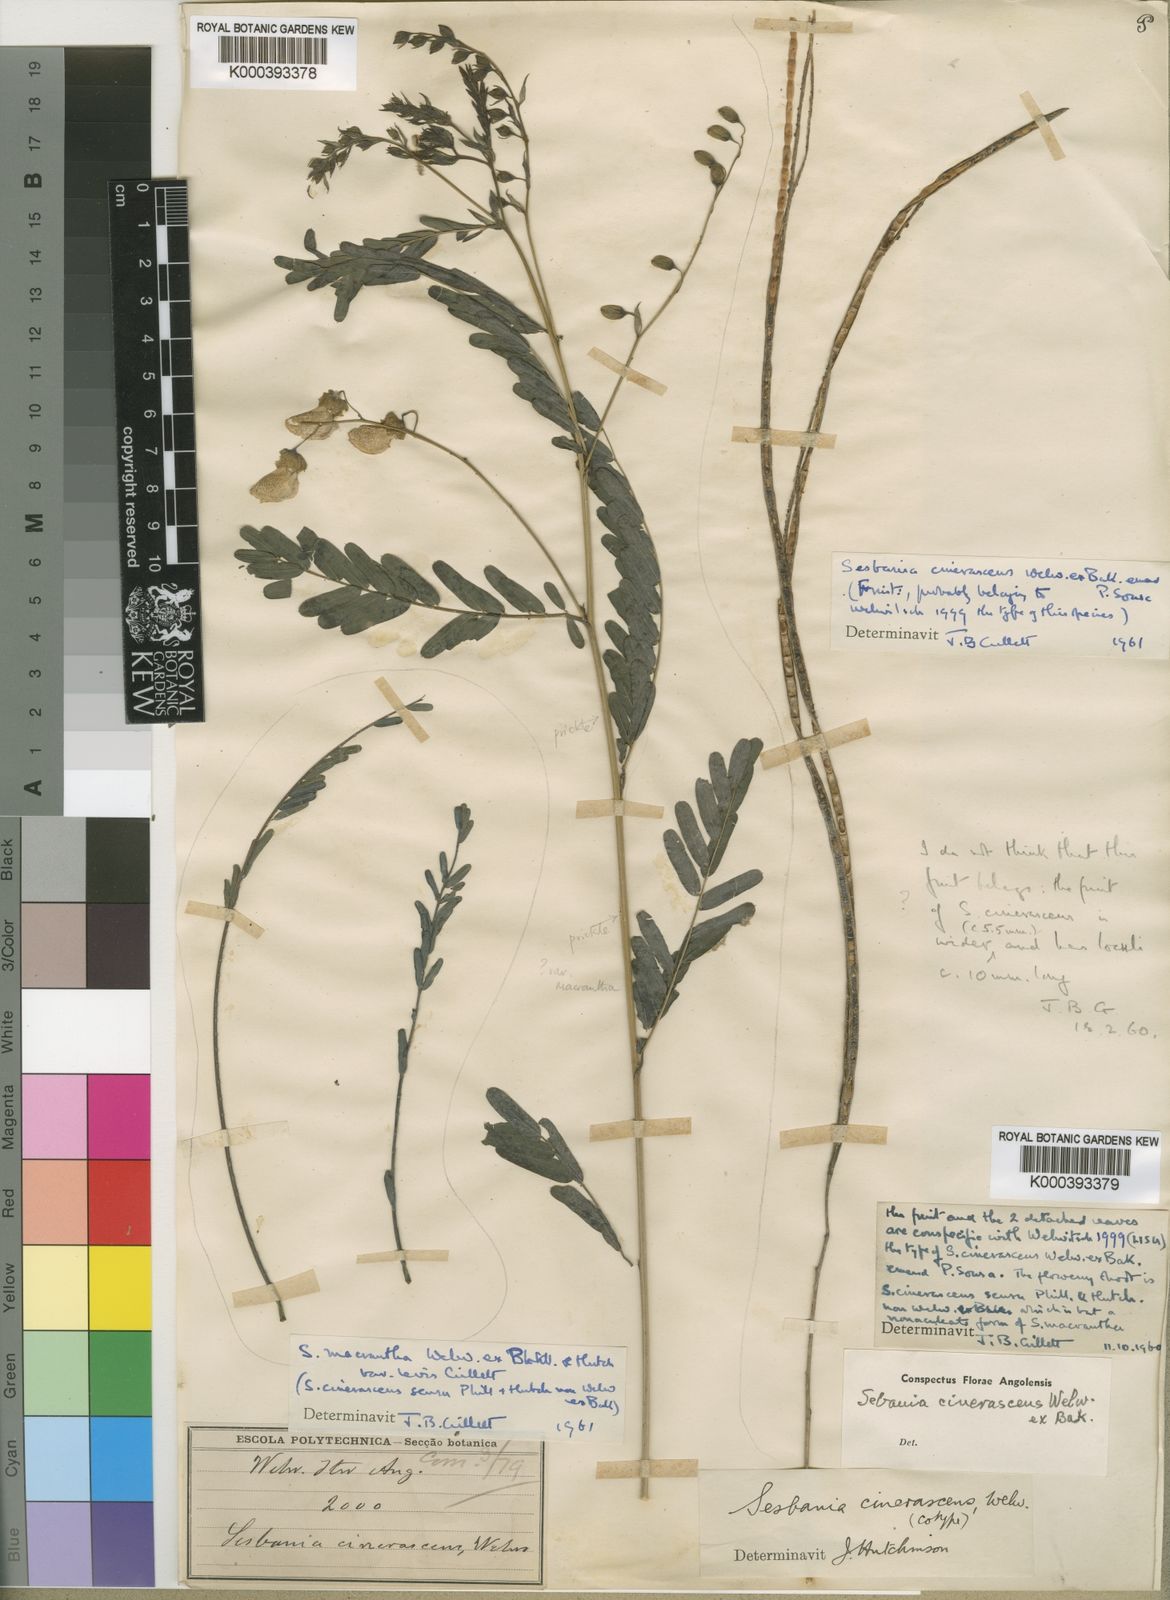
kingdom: Plantae
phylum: Tracheophyta
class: Magnoliopsida
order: Fabales
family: Fabaceae
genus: Sesbania
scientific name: Sesbania macrantha
